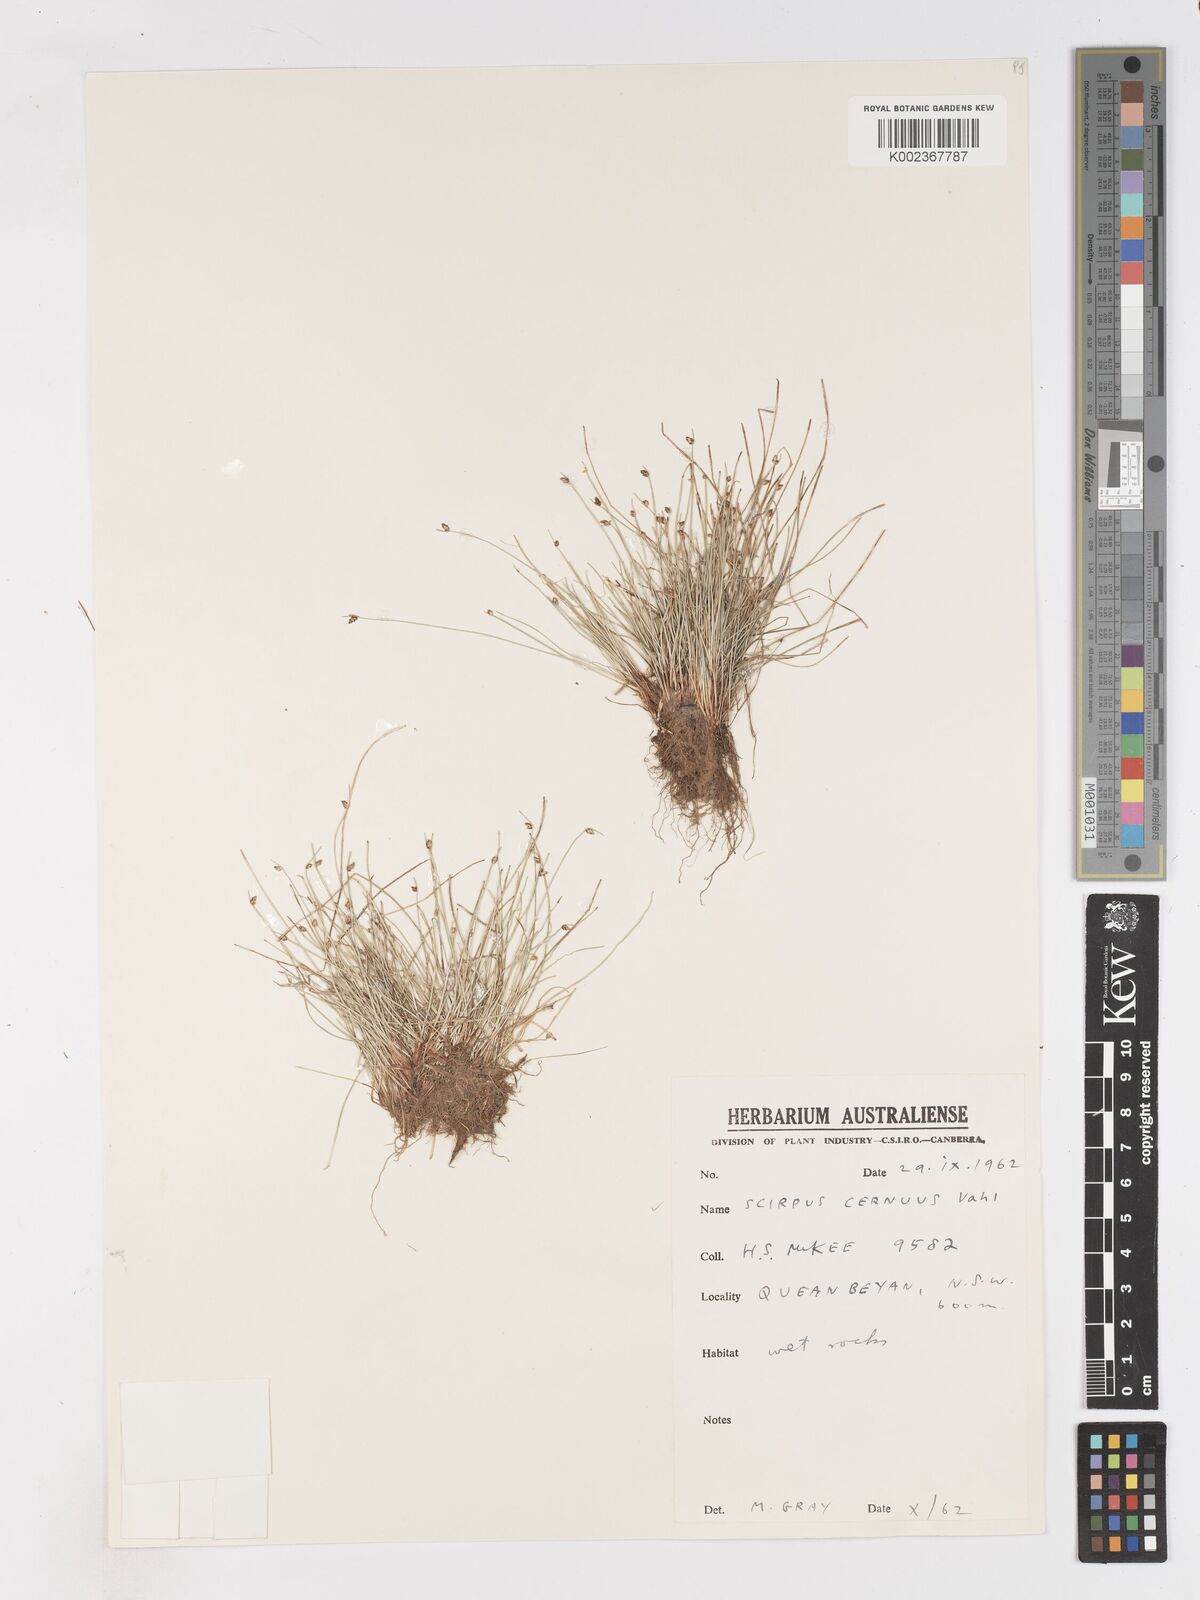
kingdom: Plantae
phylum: Tracheophyta
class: Liliopsida
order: Poales
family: Cyperaceae
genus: Isolepis
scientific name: Isolepis cernua
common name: Slender club-rush
